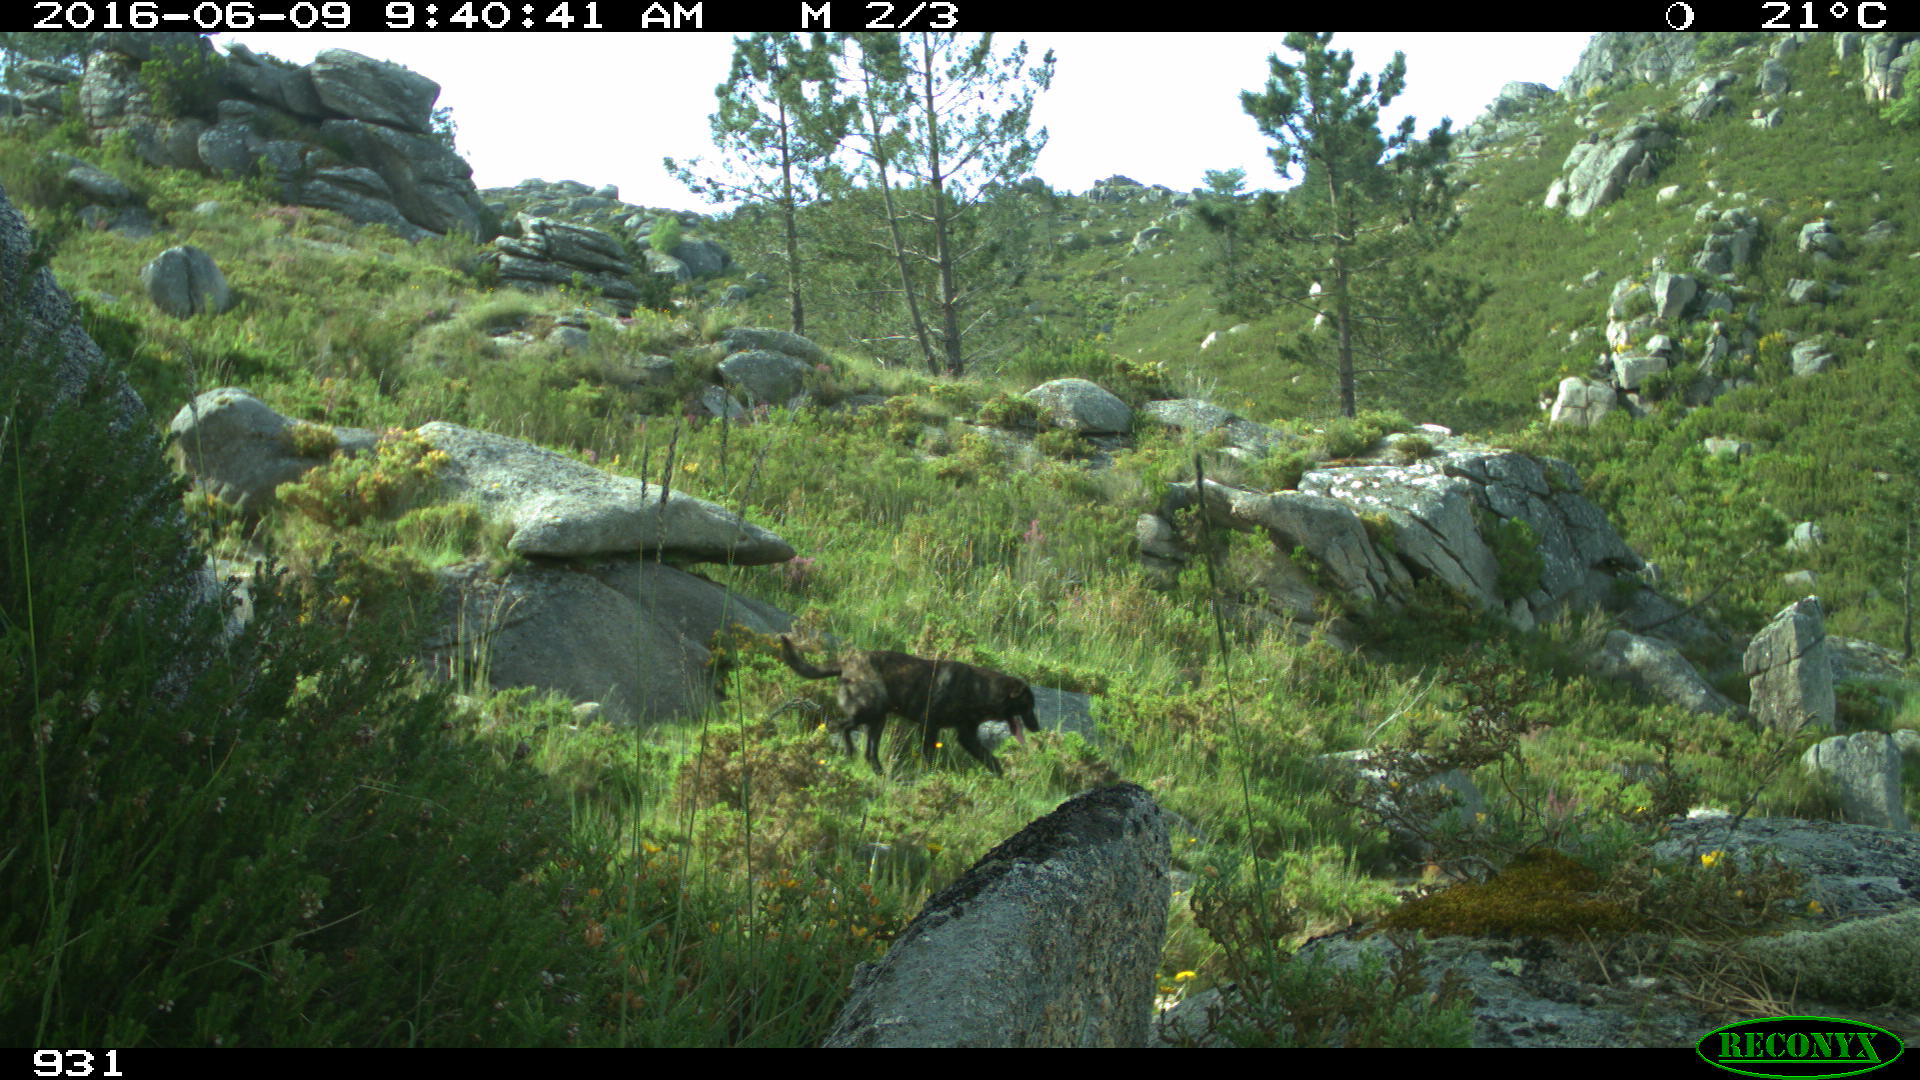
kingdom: Animalia
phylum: Chordata
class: Mammalia
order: Carnivora
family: Canidae
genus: Canis
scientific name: Canis lupus
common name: Gray wolf
